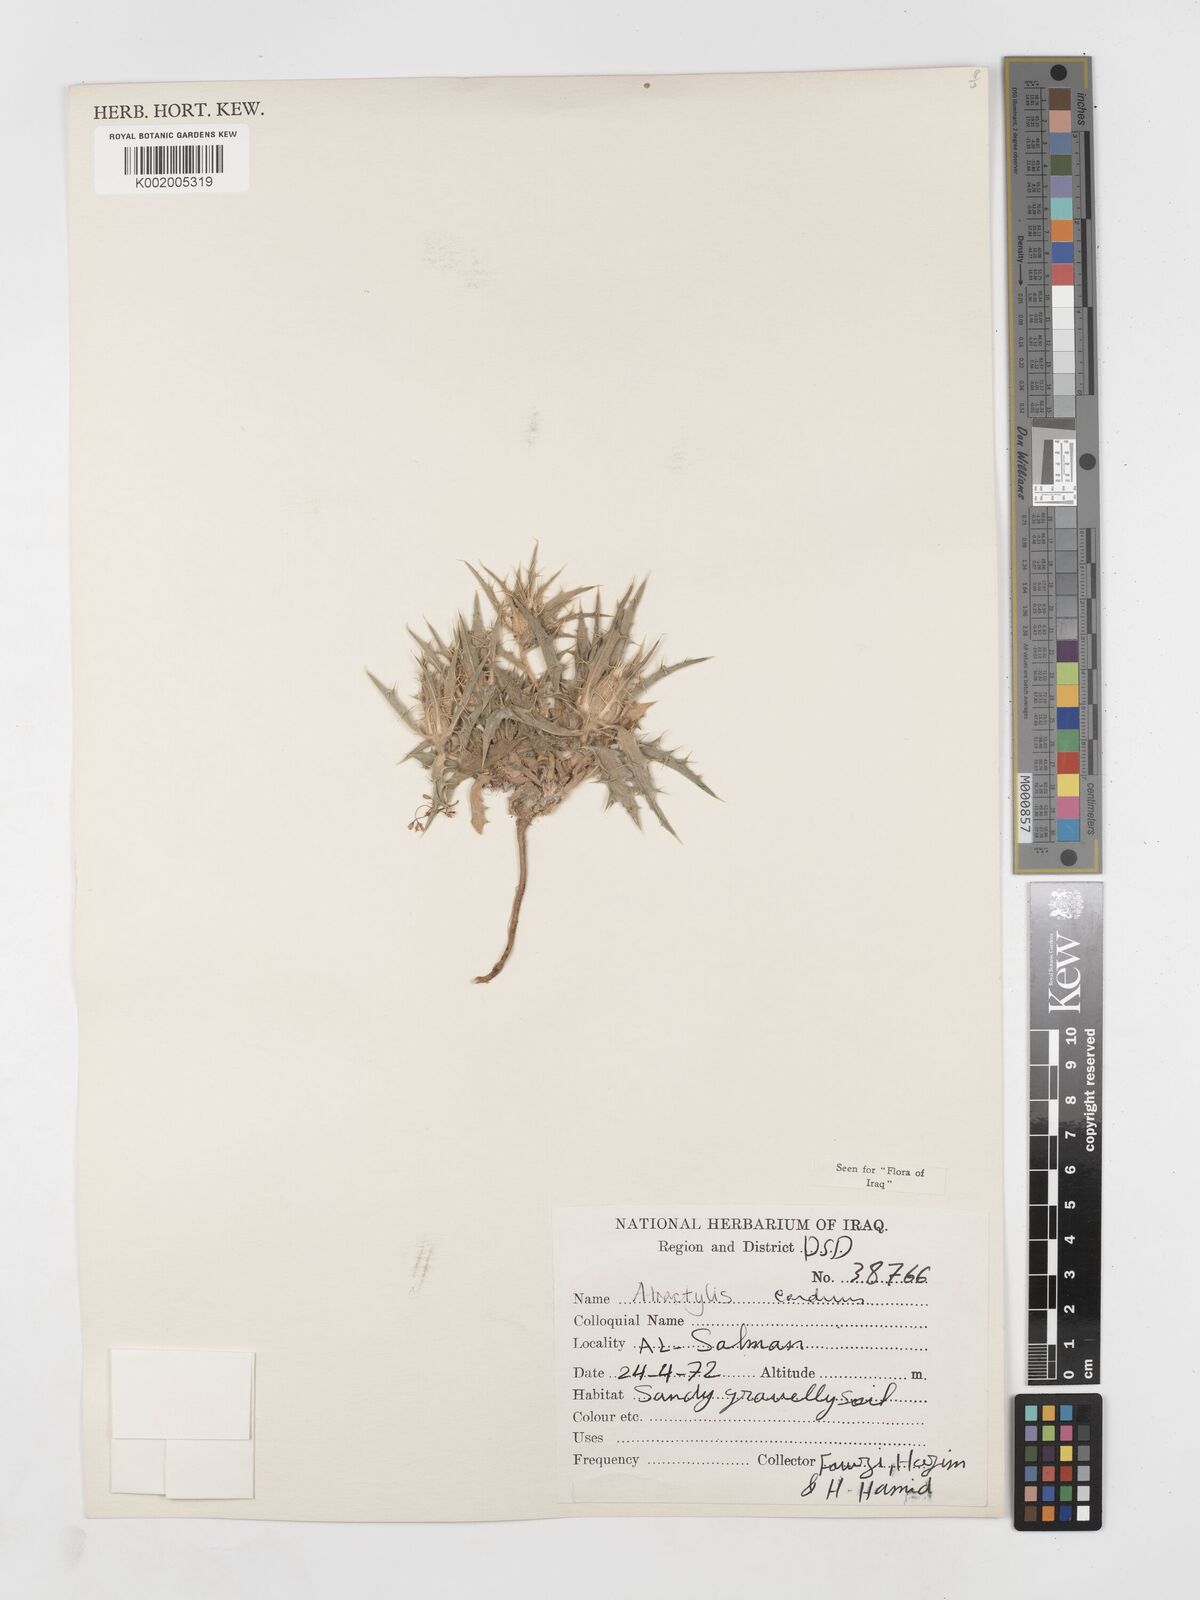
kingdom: Plantae
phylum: Tracheophyta
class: Magnoliopsida
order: Asterales
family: Asteraceae
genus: Atractylis
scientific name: Atractylis carduus
